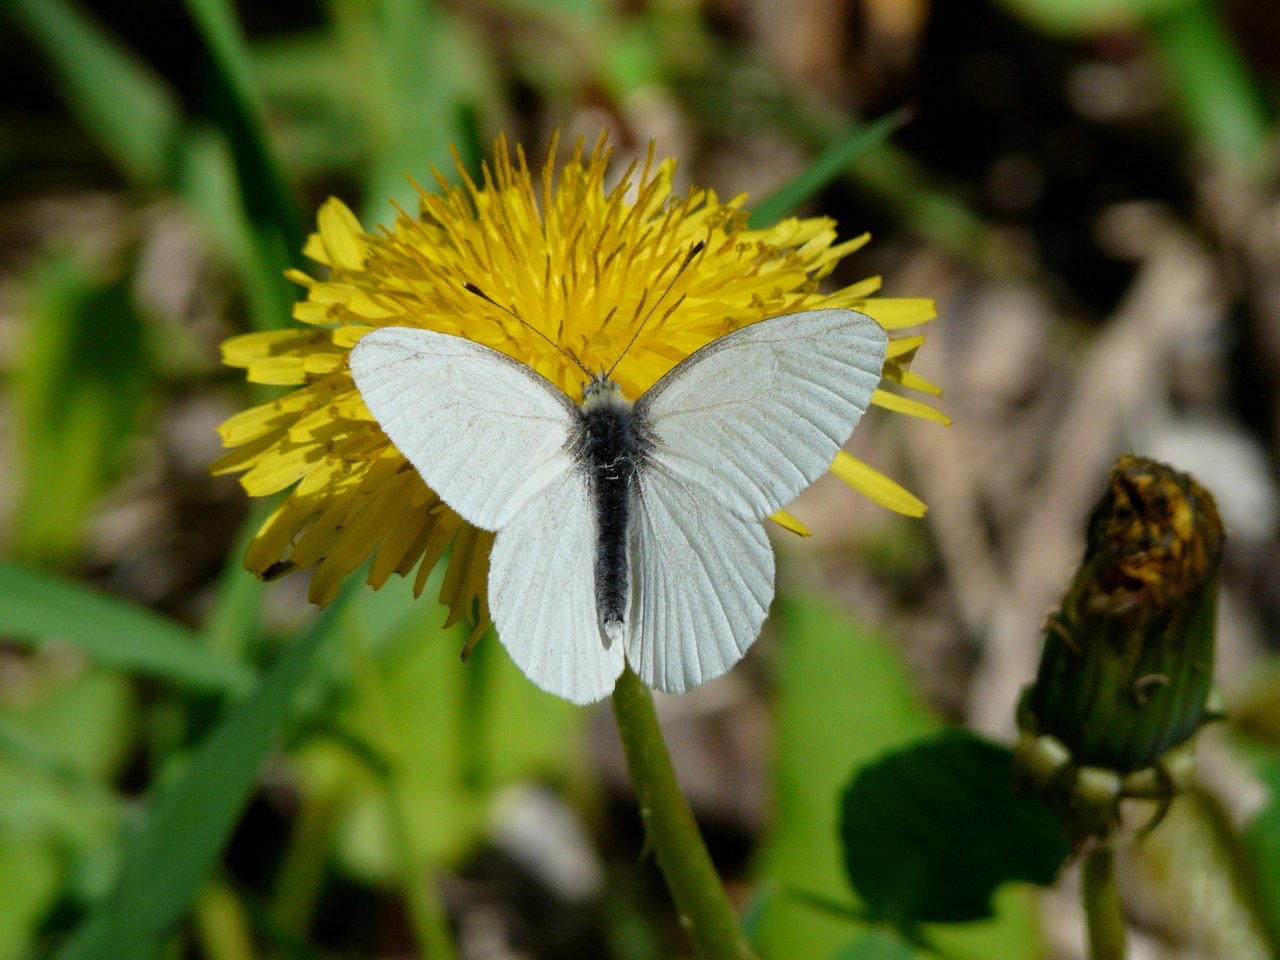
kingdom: Animalia
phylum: Arthropoda
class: Insecta
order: Lepidoptera
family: Pieridae
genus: Pieris
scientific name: Pieris virginiensis
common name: West Virginia White
